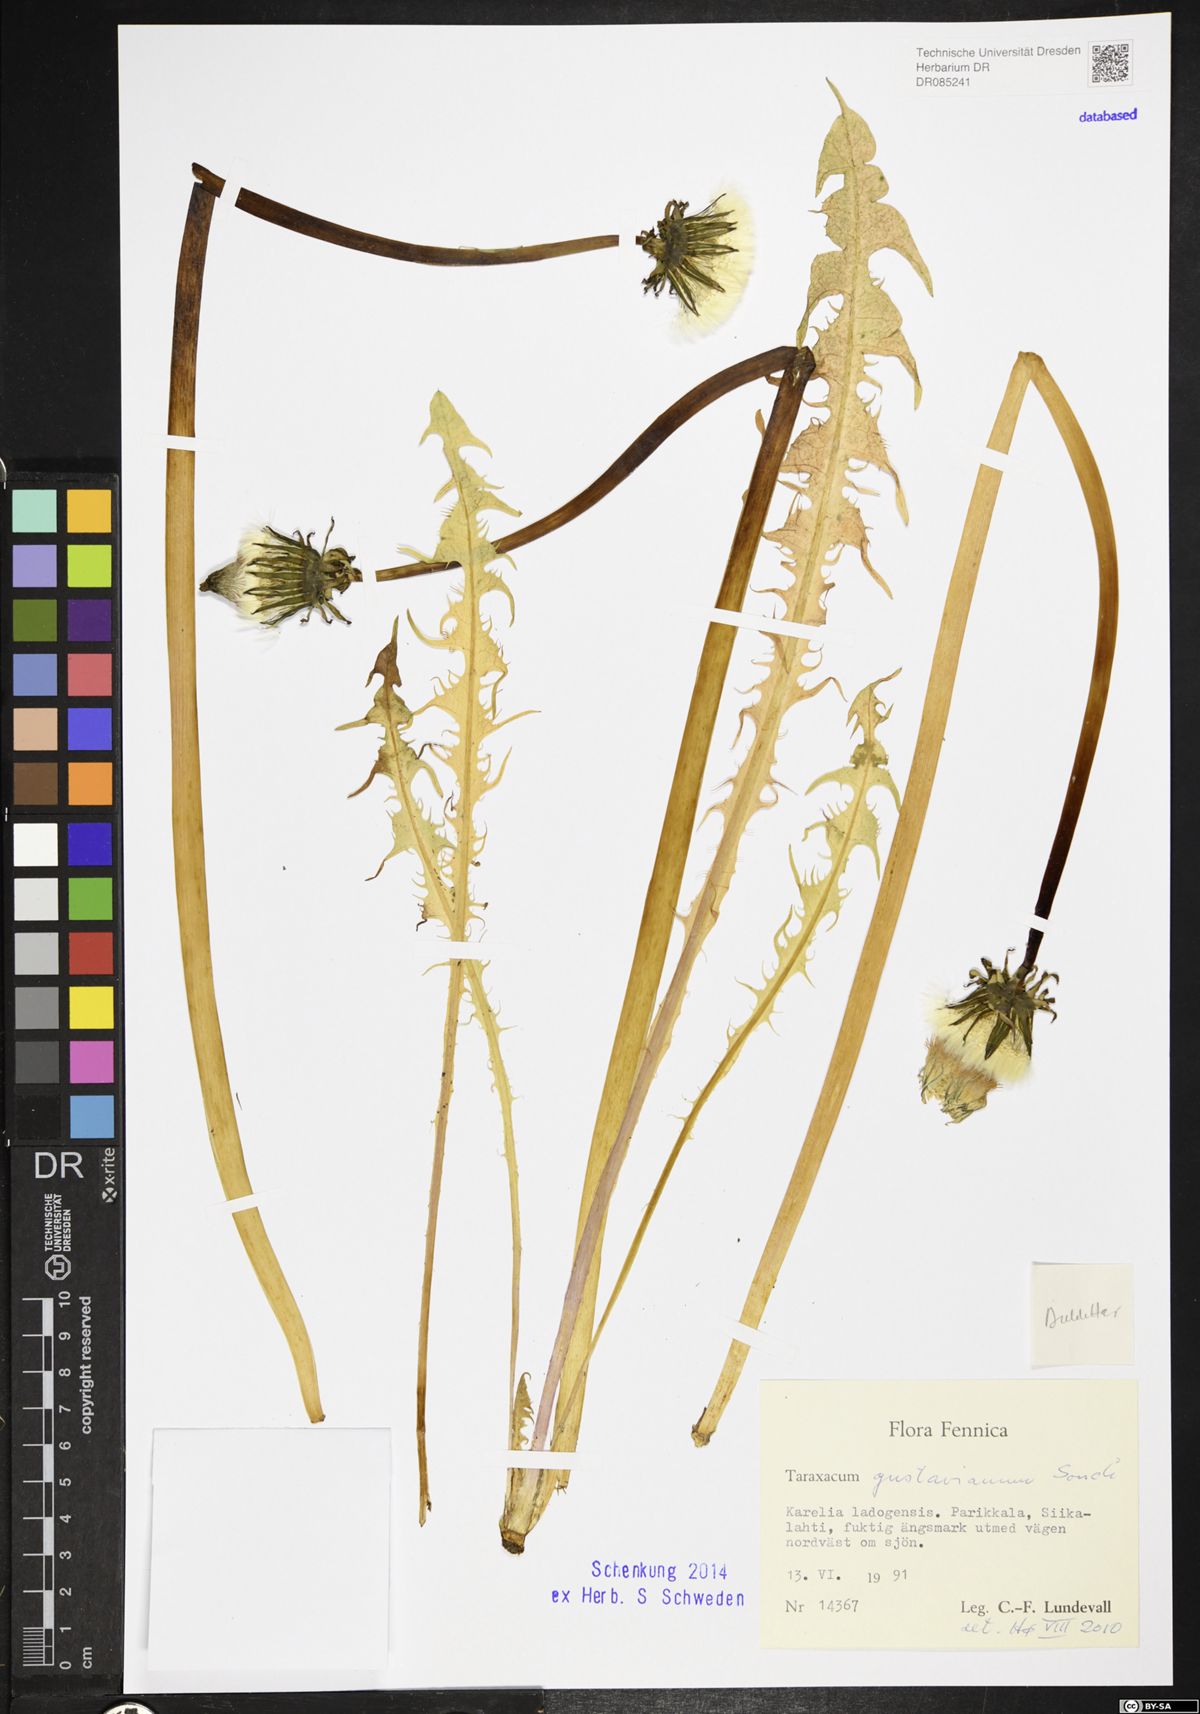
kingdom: Plantae
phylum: Tracheophyta
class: Magnoliopsida
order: Asterales
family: Asteraceae
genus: Taraxacum
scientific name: Taraxacum gustavianum
